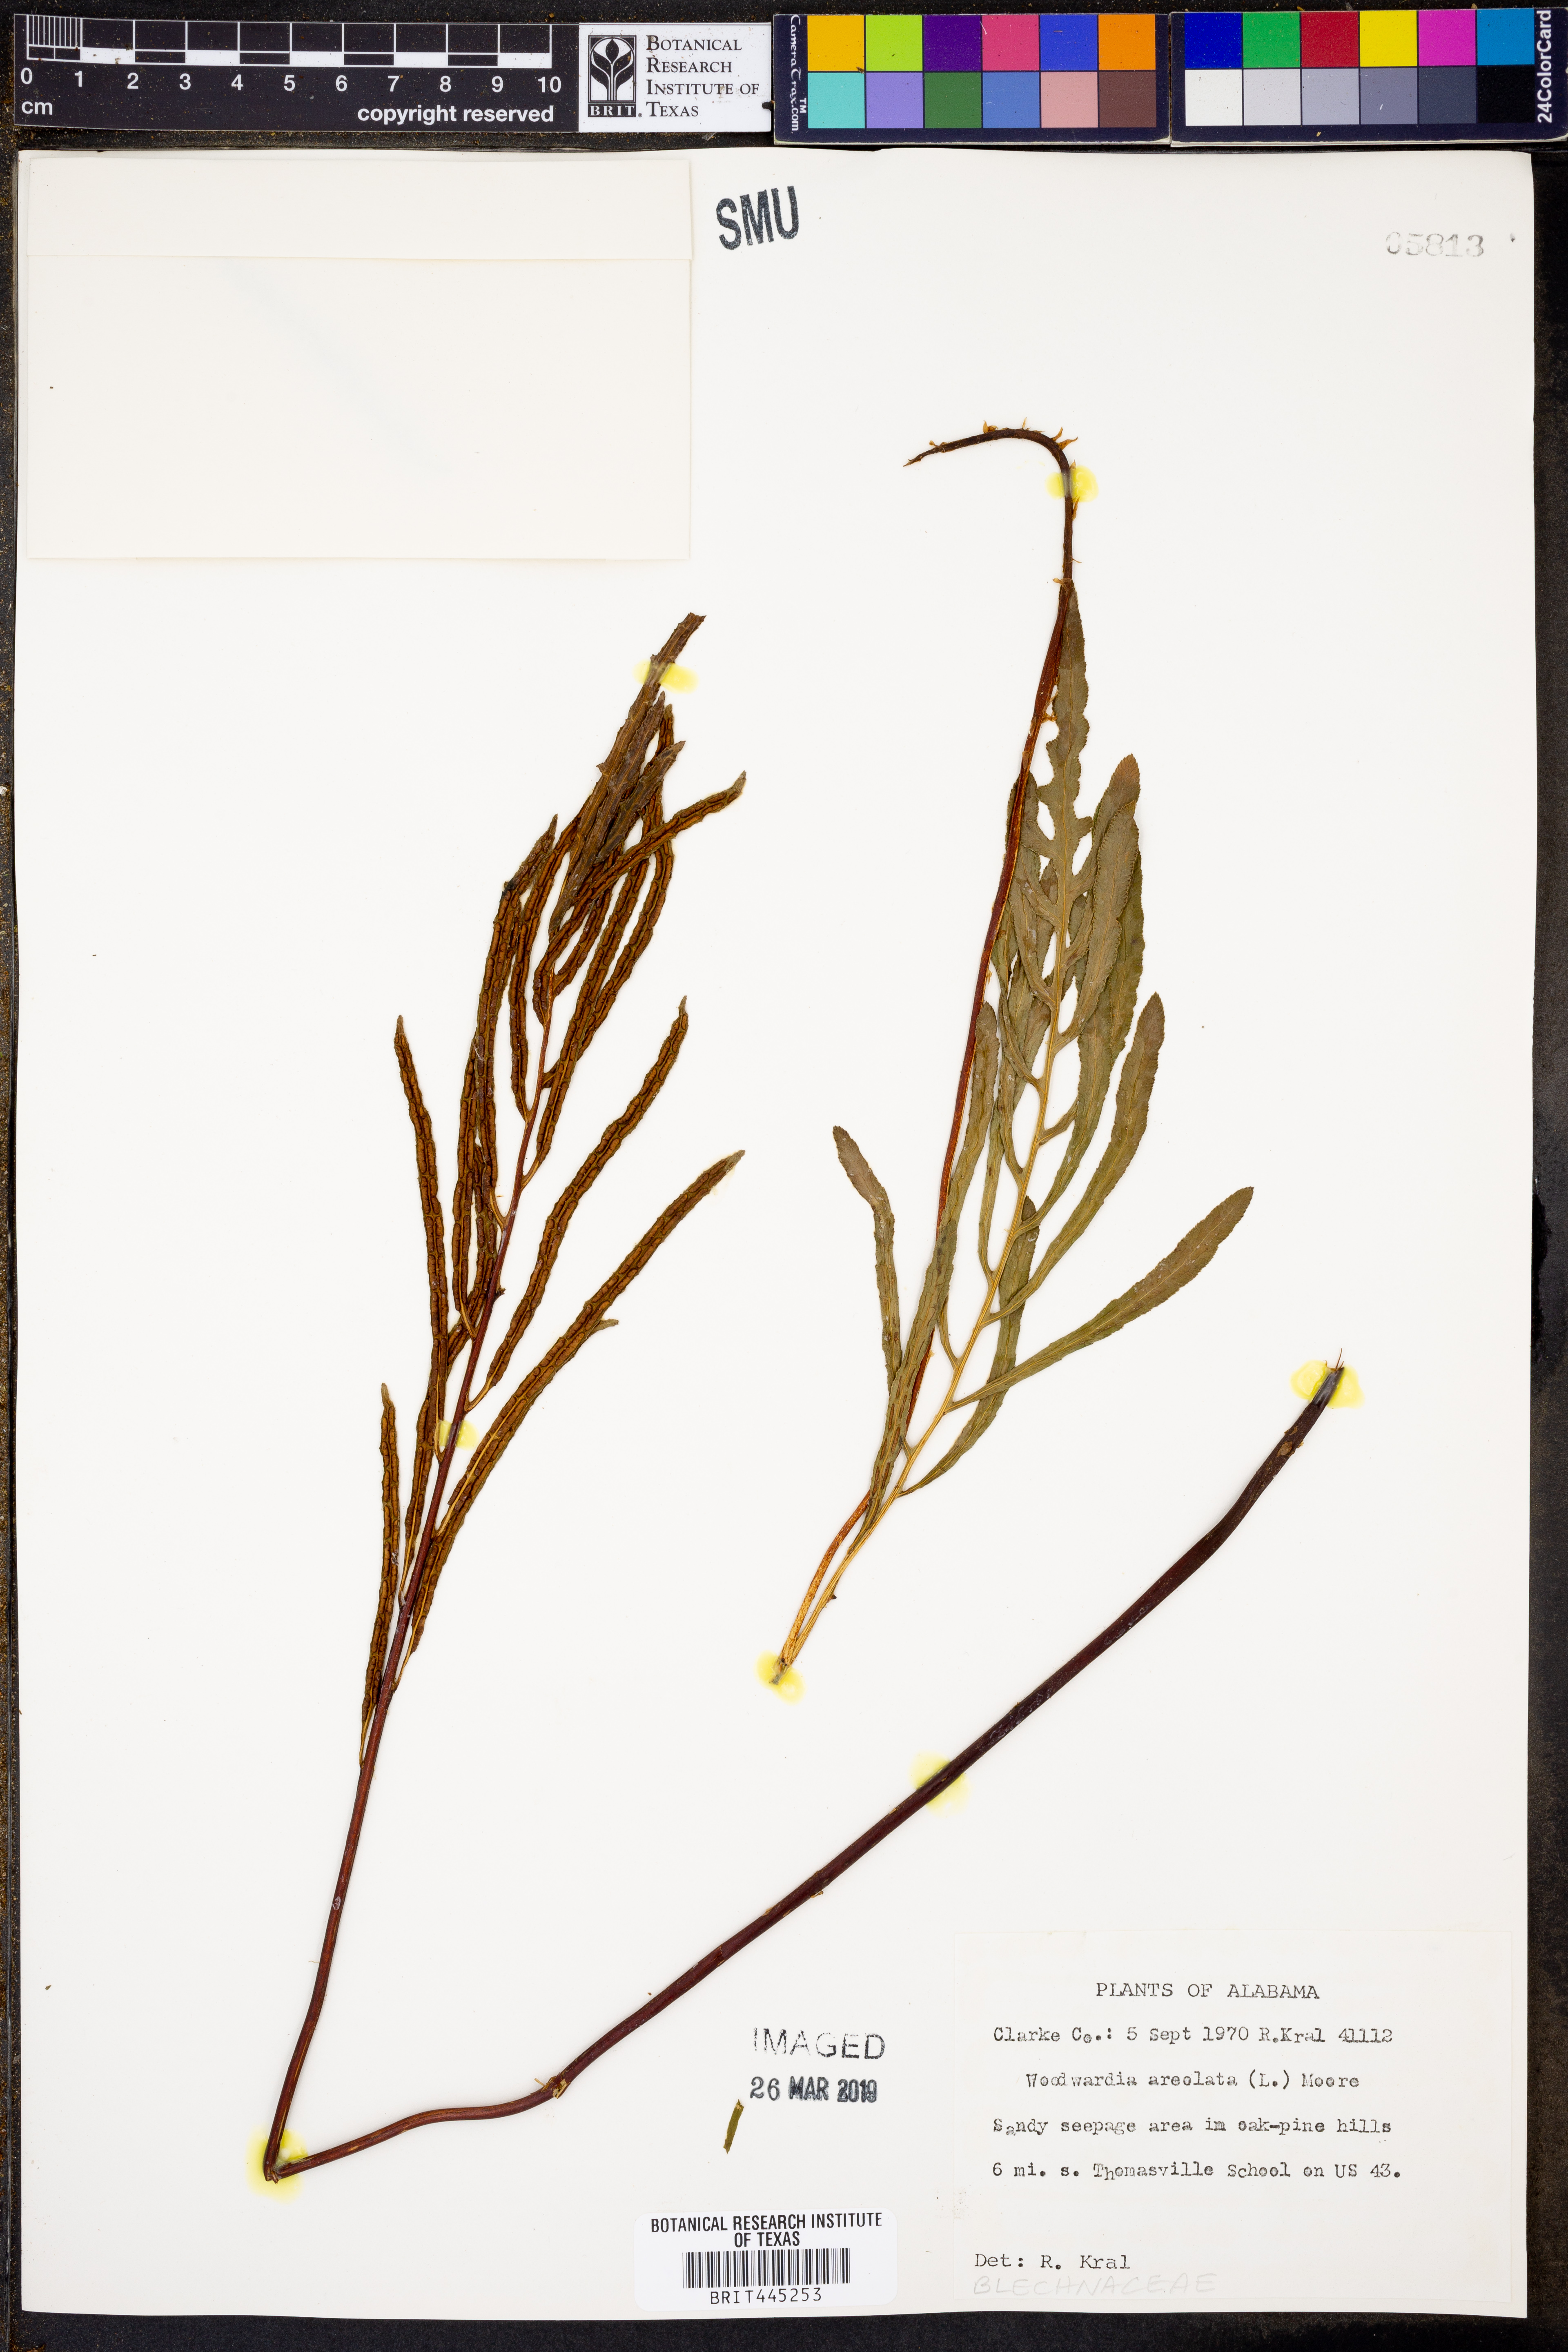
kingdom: Plantae
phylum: Tracheophyta
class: Polypodiopsida
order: Polypodiales
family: Blechnaceae
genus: Lorinseria
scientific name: Lorinseria areolata
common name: Dwarf chain fern
